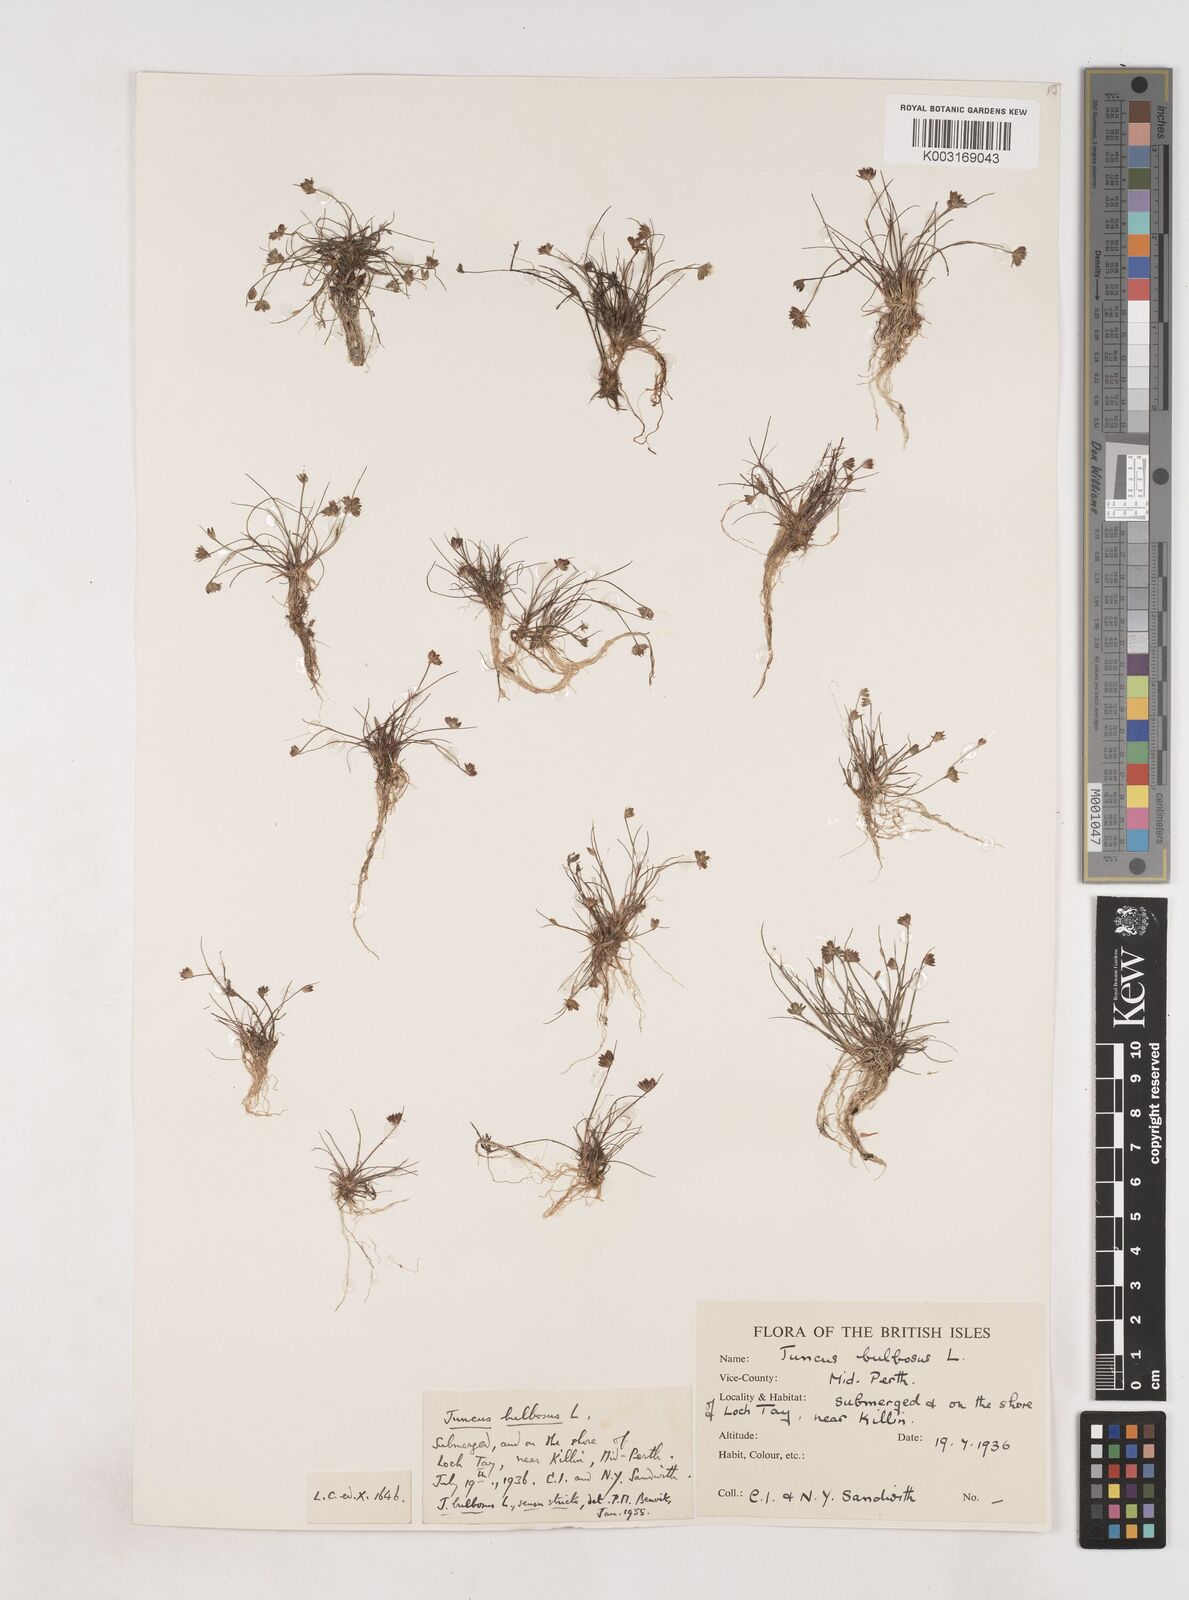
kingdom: Plantae
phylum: Tracheophyta
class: Liliopsida
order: Poales
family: Juncaceae
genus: Juncus
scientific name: Juncus bulbosus
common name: Bulbous rush
